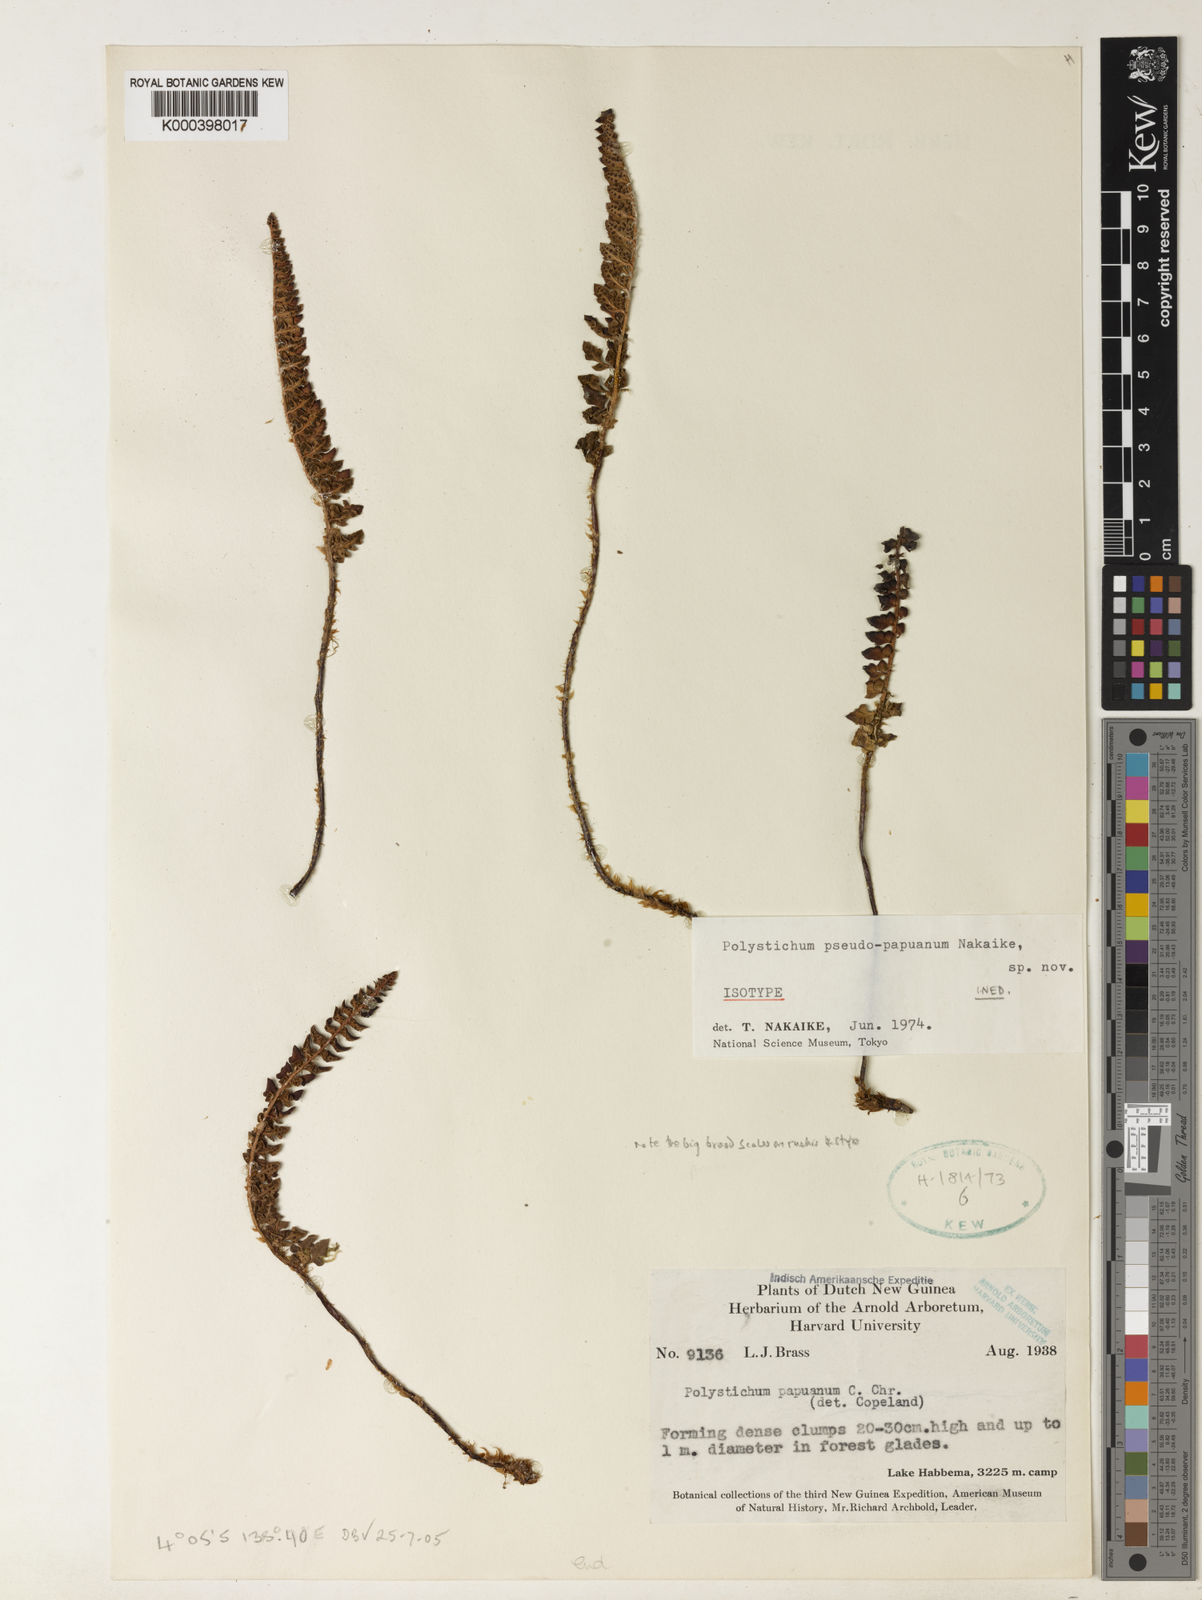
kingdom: Plantae
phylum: Tracheophyta
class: Polypodiopsida
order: Polypodiales
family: Dryopteridaceae
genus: Polystichum
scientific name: Polystichum
